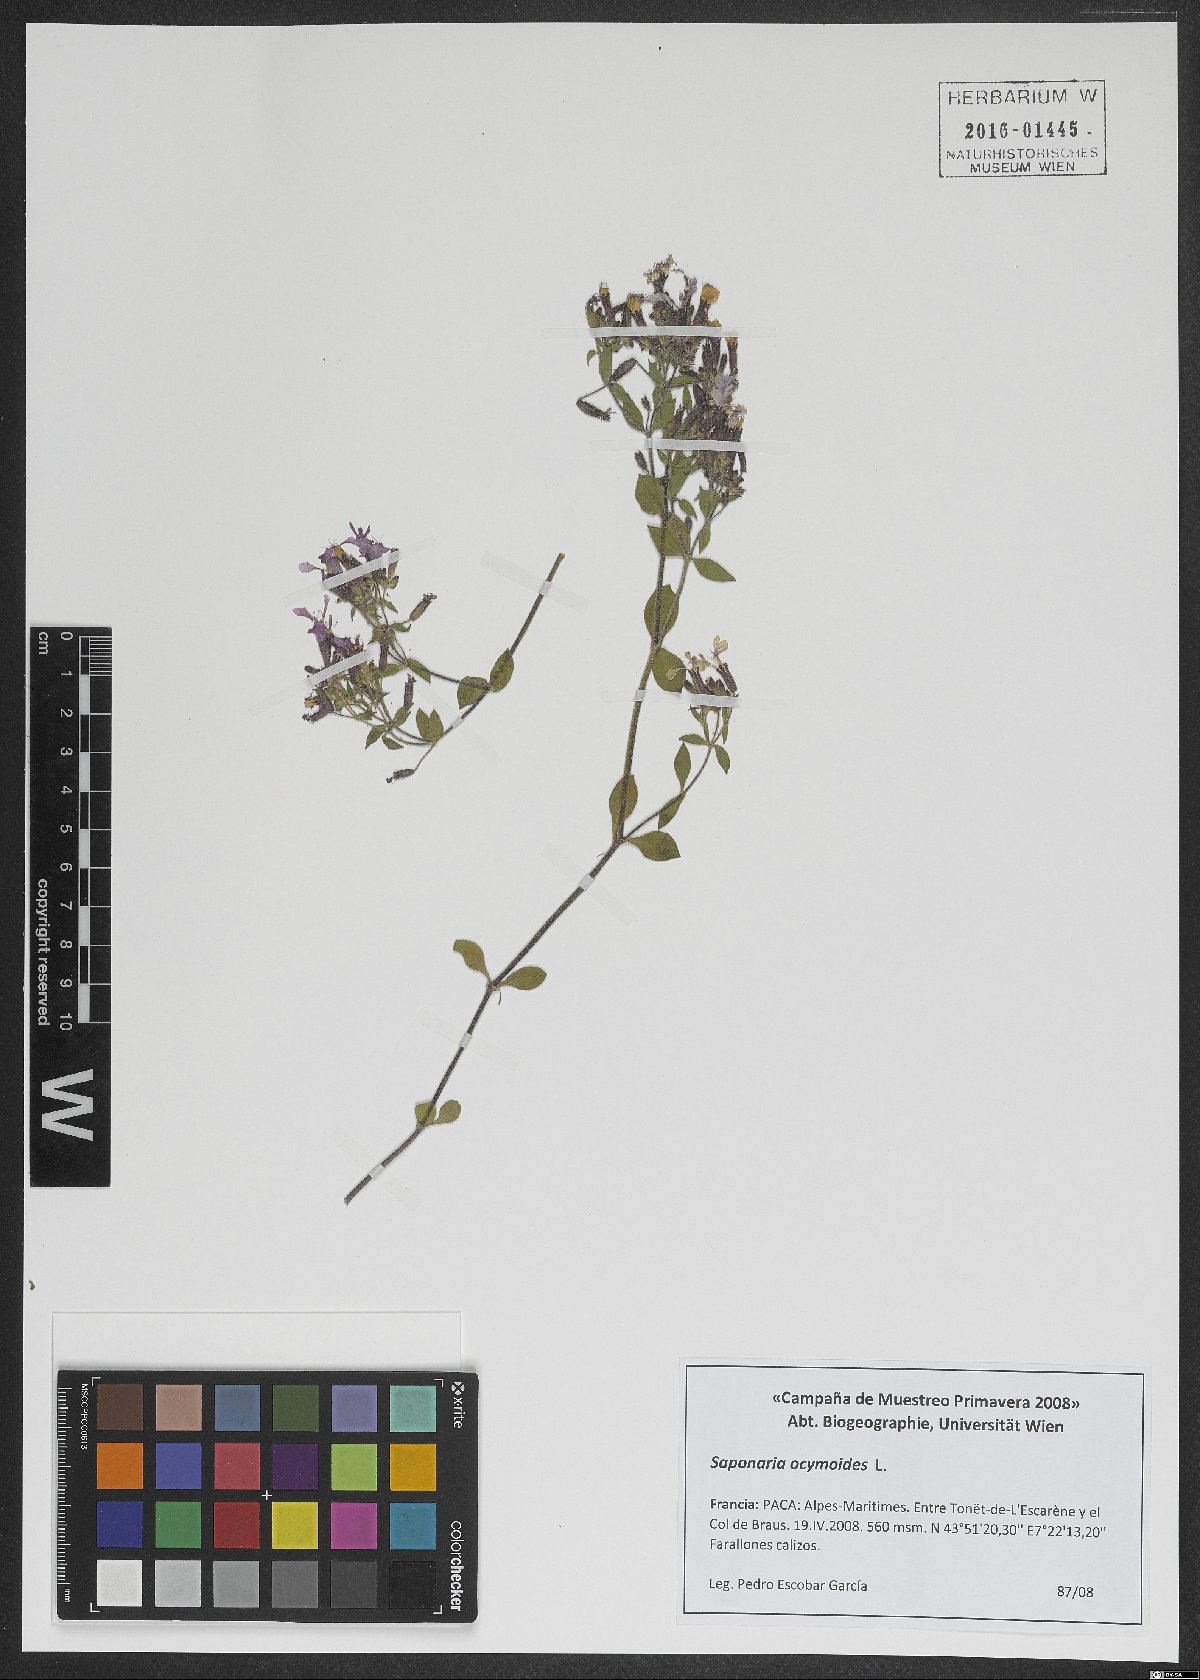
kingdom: Plantae
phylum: Tracheophyta
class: Magnoliopsida
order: Caryophyllales
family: Caryophyllaceae
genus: Saponaria
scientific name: Saponaria ocymoides
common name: Rock soapwort
